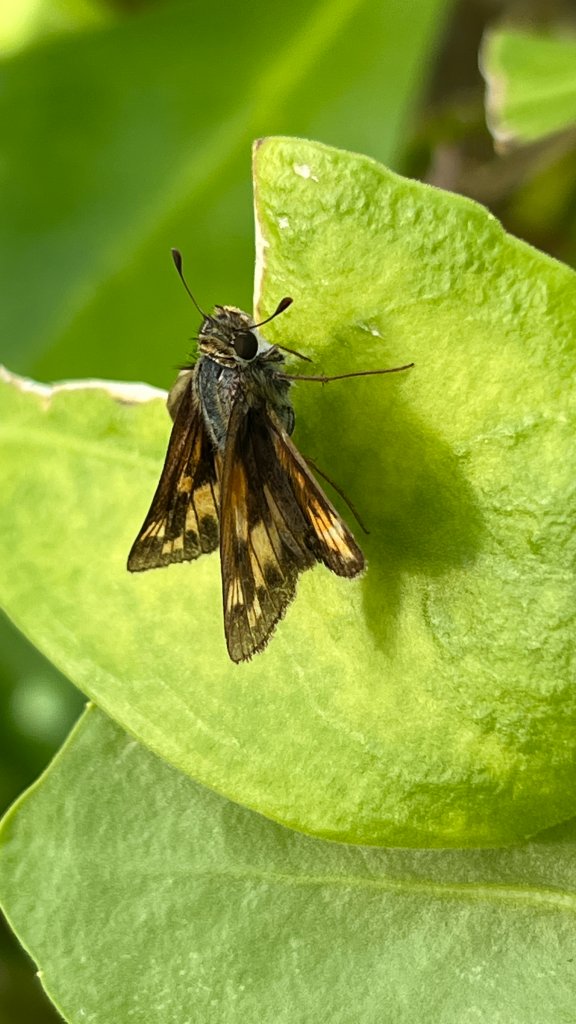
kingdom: Animalia
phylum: Arthropoda
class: Insecta
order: Lepidoptera
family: Hesperiidae
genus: Hylephila
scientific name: Hylephila phyleus
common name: Fiery Skipper
